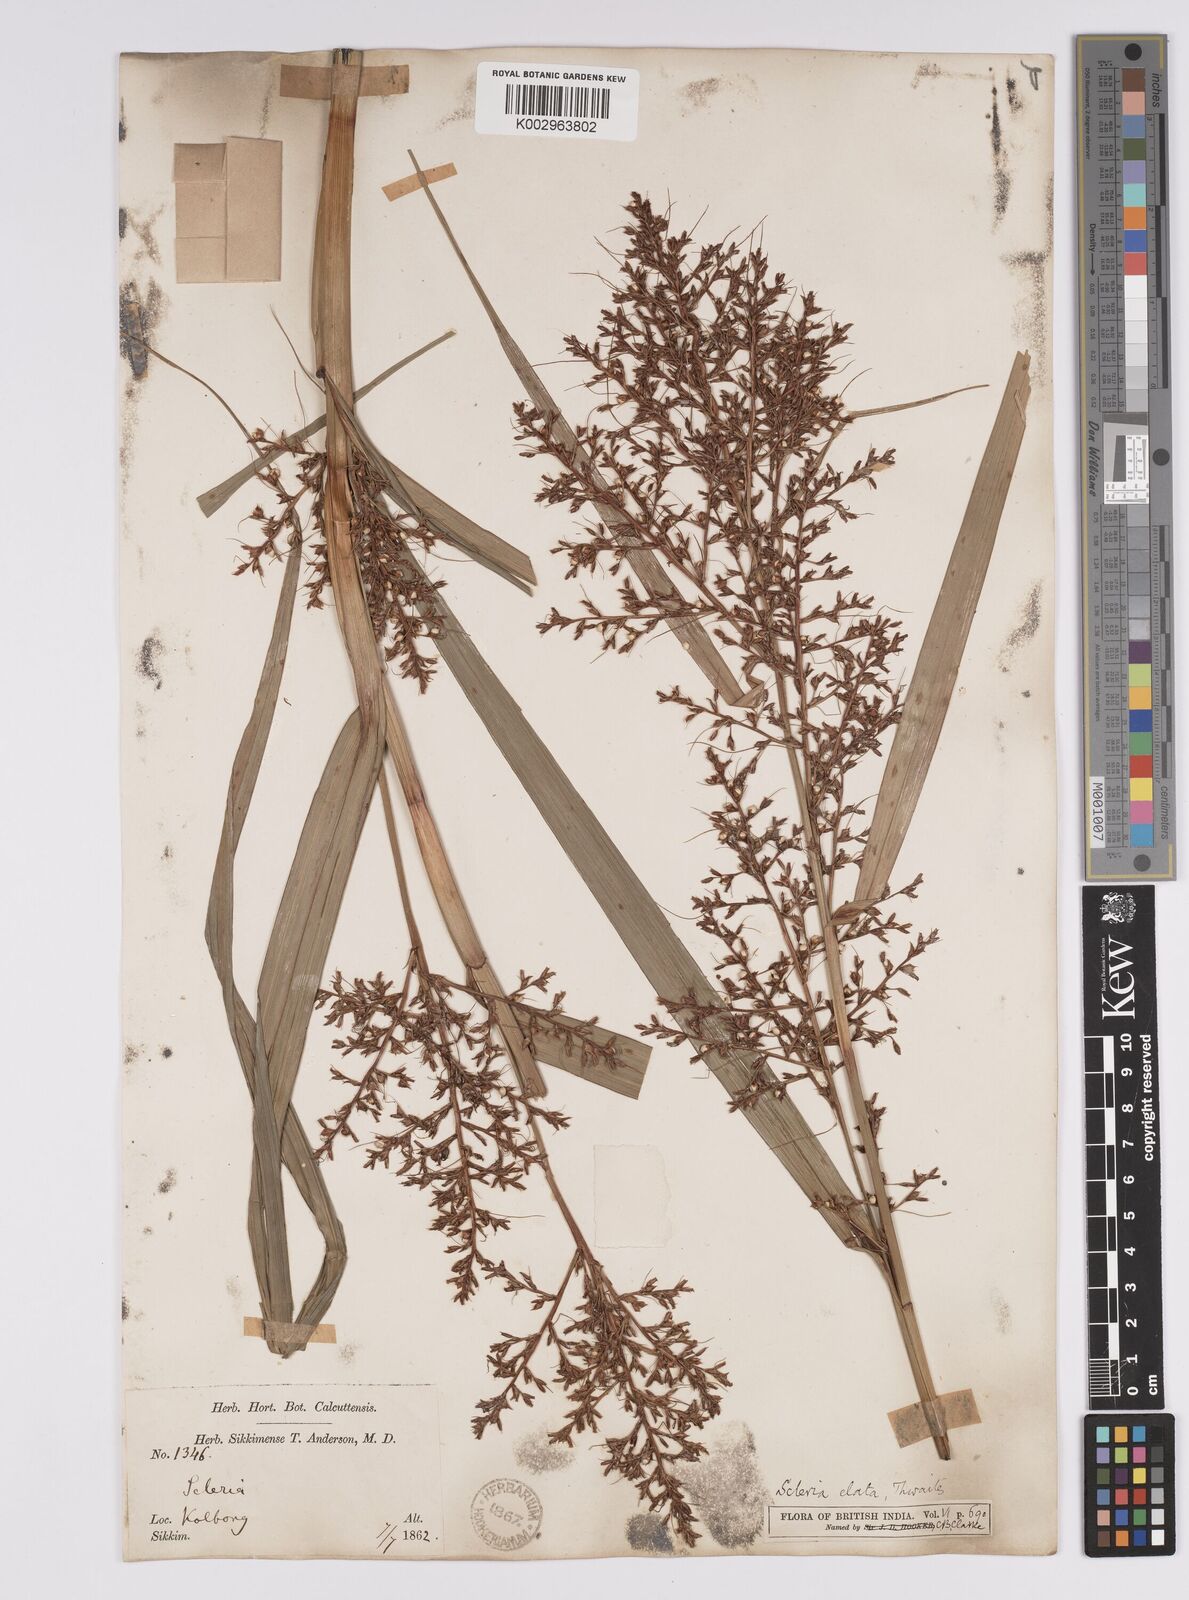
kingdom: Plantae
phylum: Tracheophyta
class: Liliopsida
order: Poales
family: Cyperaceae
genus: Scleria
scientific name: Scleria terrestris
